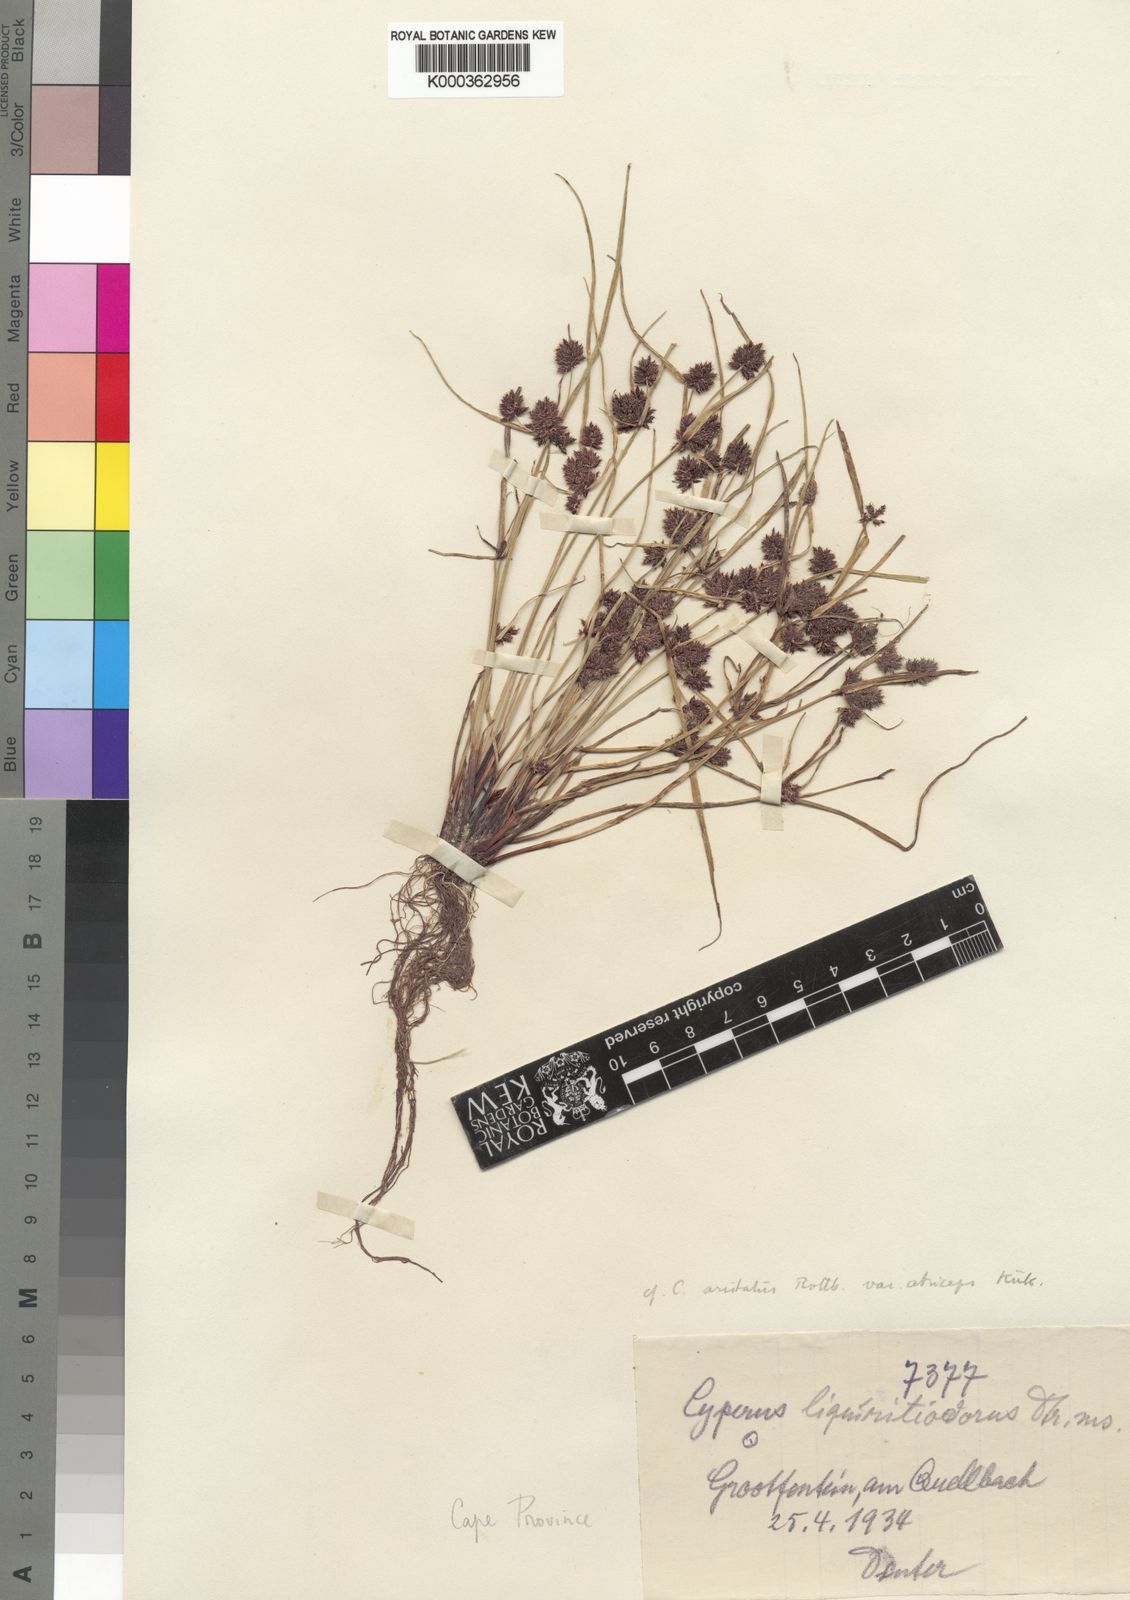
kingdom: Plantae
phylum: Tracheophyta
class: Liliopsida
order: Poales
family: Cyperaceae
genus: Cyperus
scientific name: Cyperus
